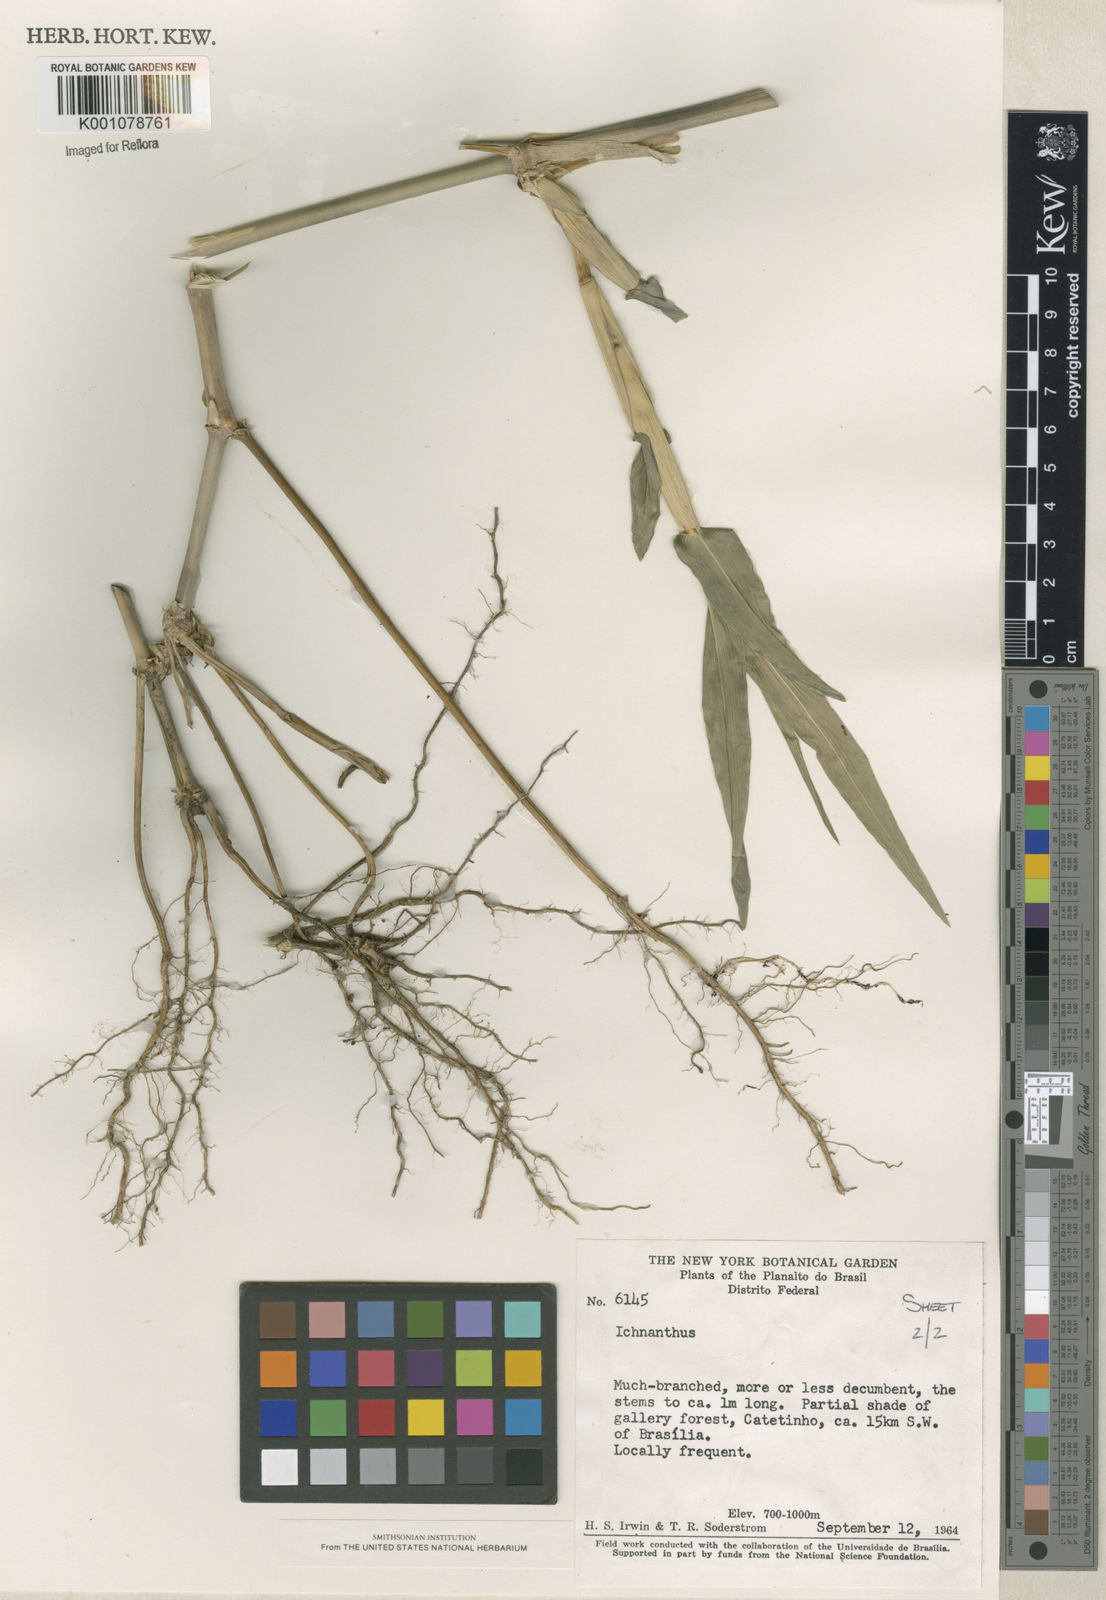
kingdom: Plantae
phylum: Tracheophyta
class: Liliopsida
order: Poales
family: Poaceae
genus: Panicum
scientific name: Panicum
